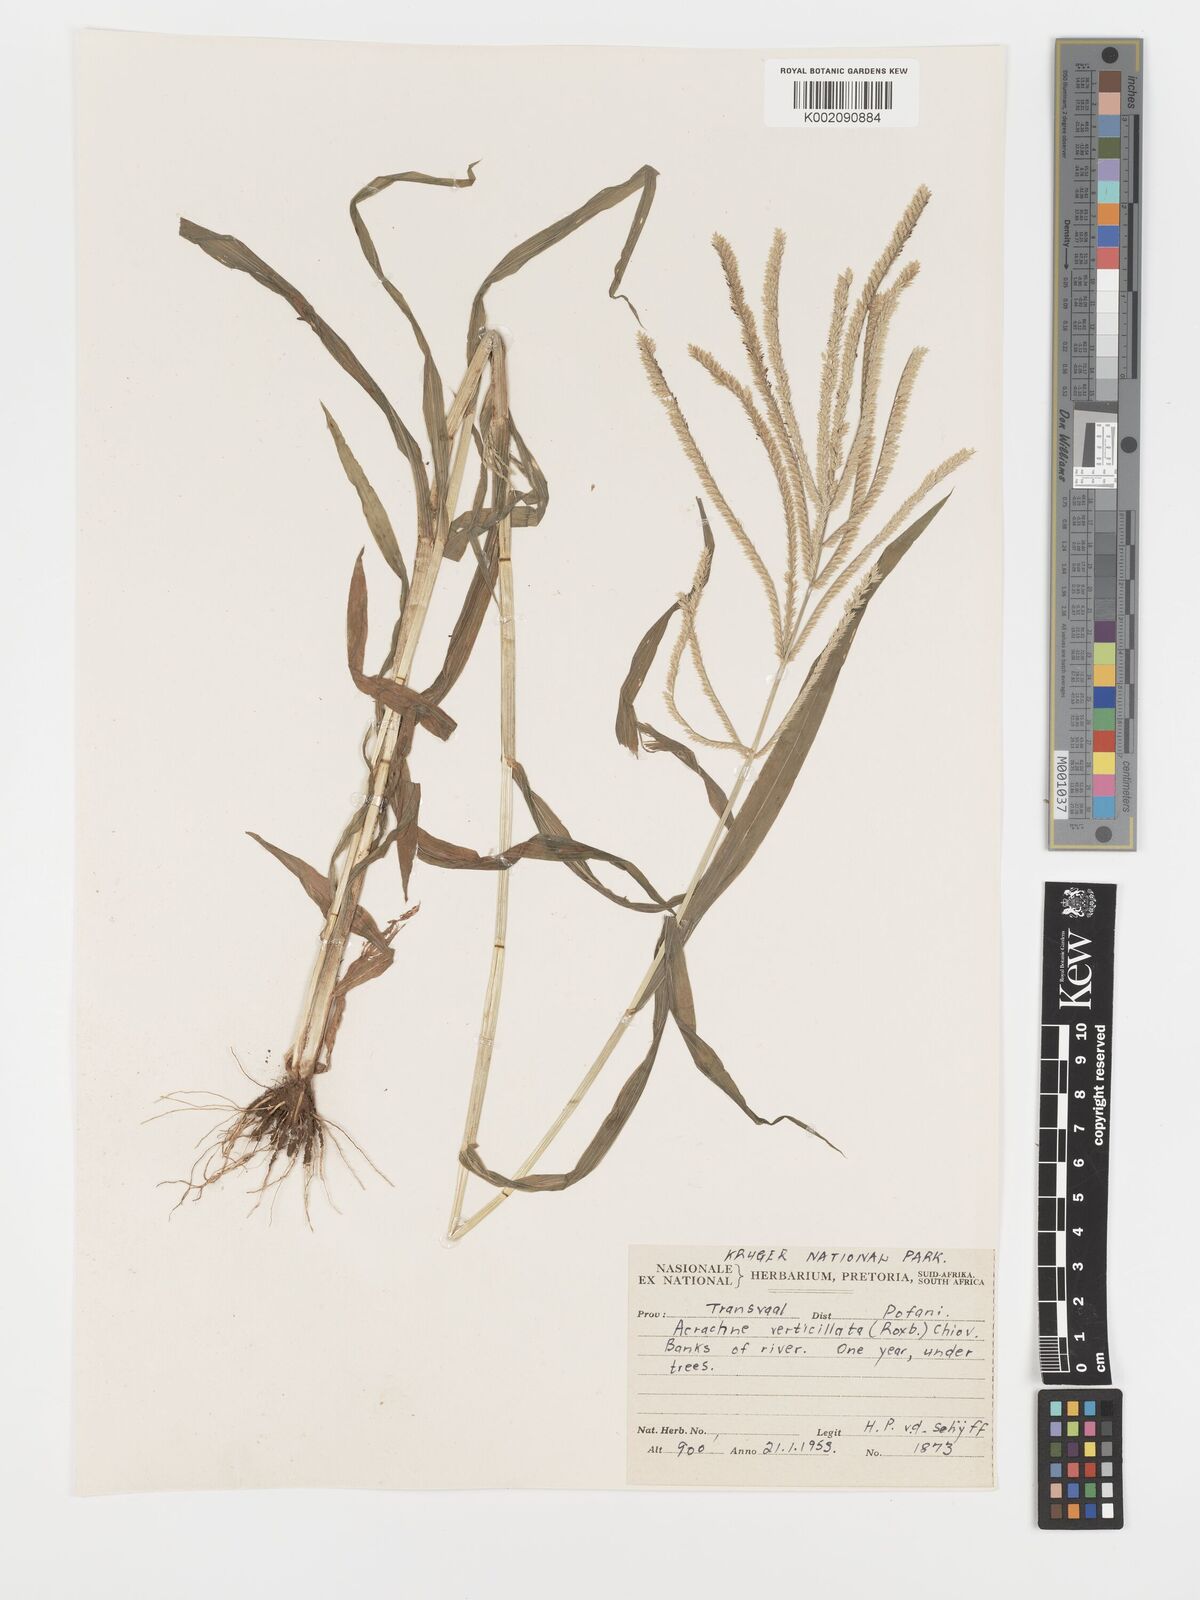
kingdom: Plantae
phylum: Tracheophyta
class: Liliopsida
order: Poales
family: Poaceae
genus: Acrachne
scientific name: Acrachne racemosa
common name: Goosegrass
